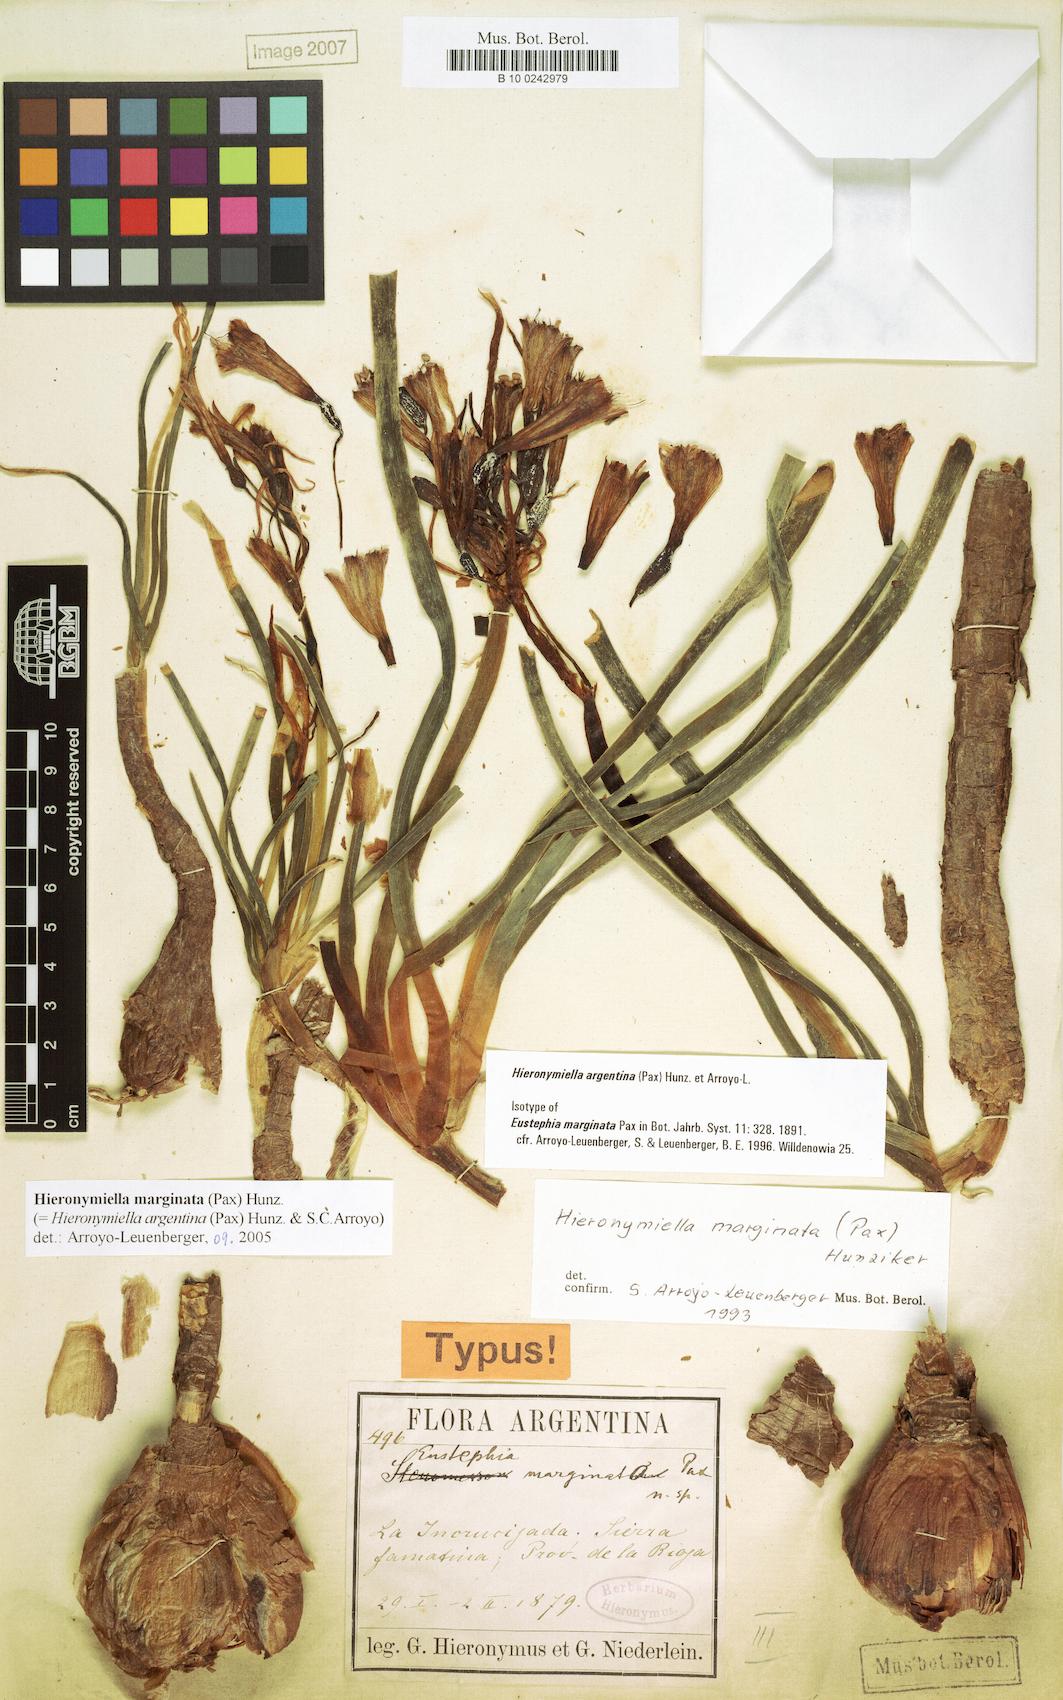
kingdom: Plantae
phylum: Tracheophyta
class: Liliopsida
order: Asparagales
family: Amaryllidaceae
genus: Hieronymiella
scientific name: Hieronymiella argentina
